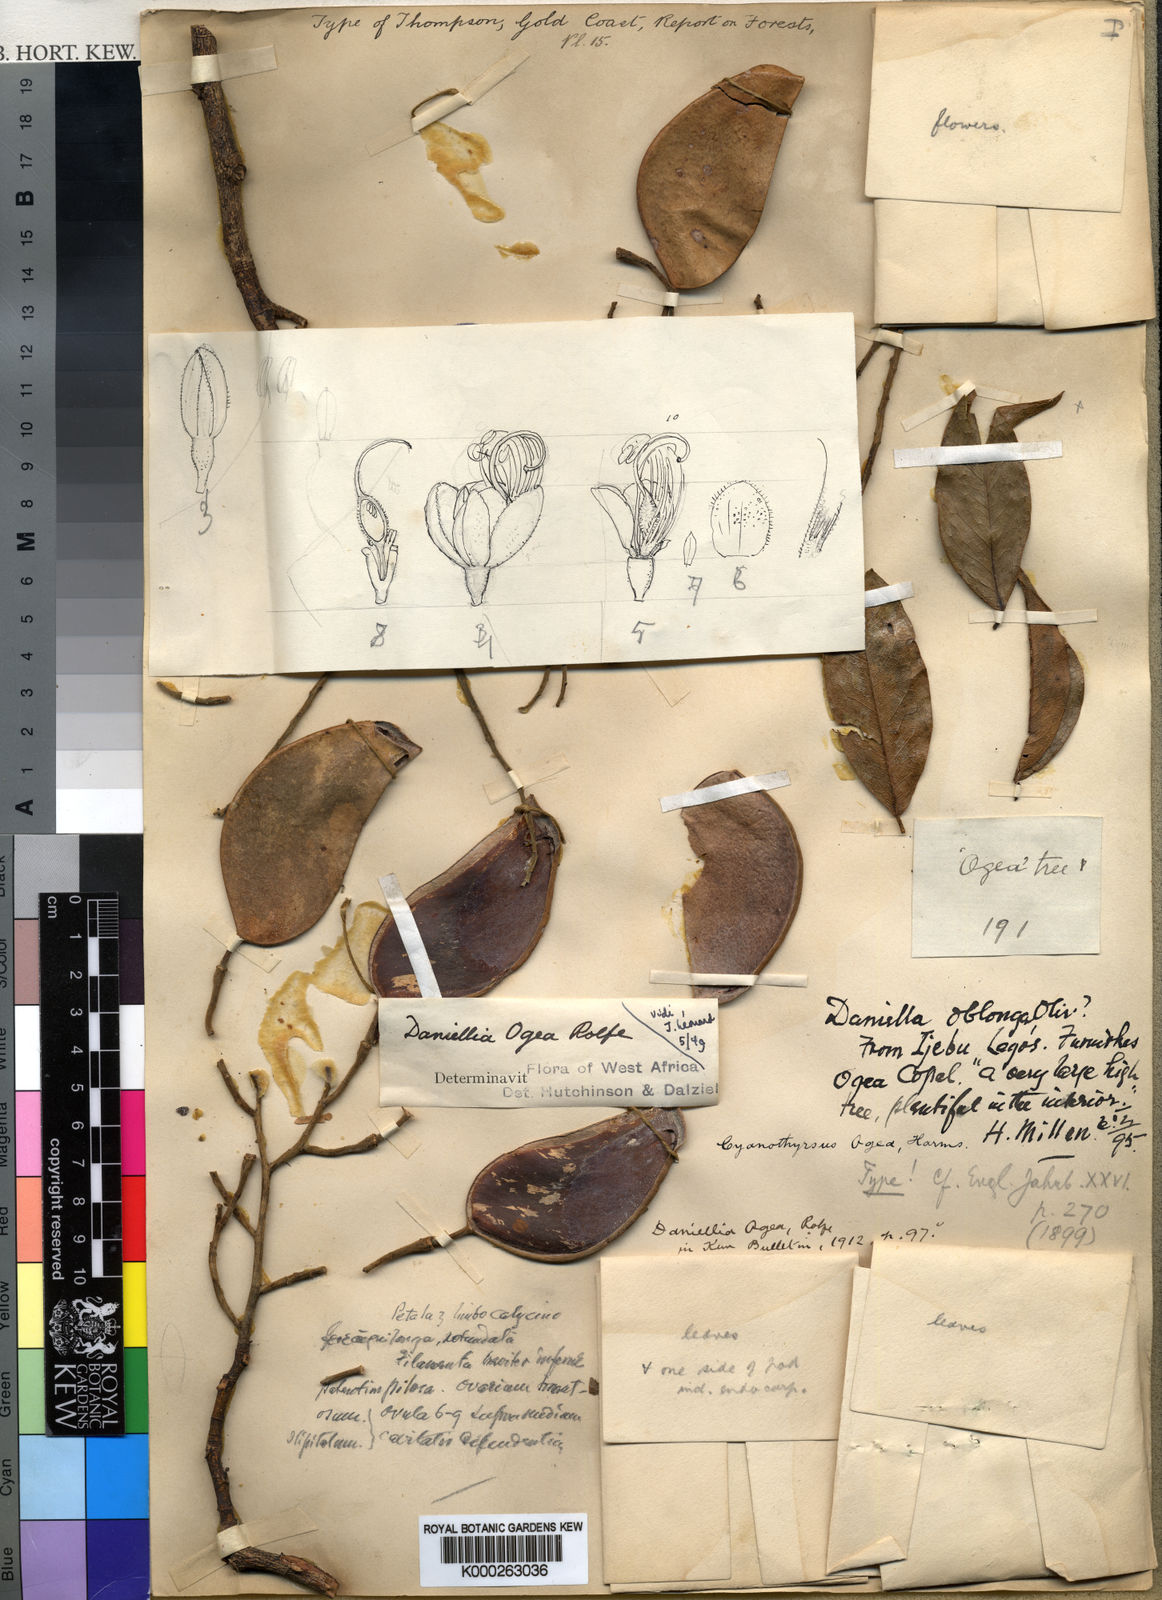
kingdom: Plantae
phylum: Tracheophyta
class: Magnoliopsida
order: Fabales
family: Fabaceae
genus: Daniellia
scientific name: Daniellia ogea
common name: Accra copal
